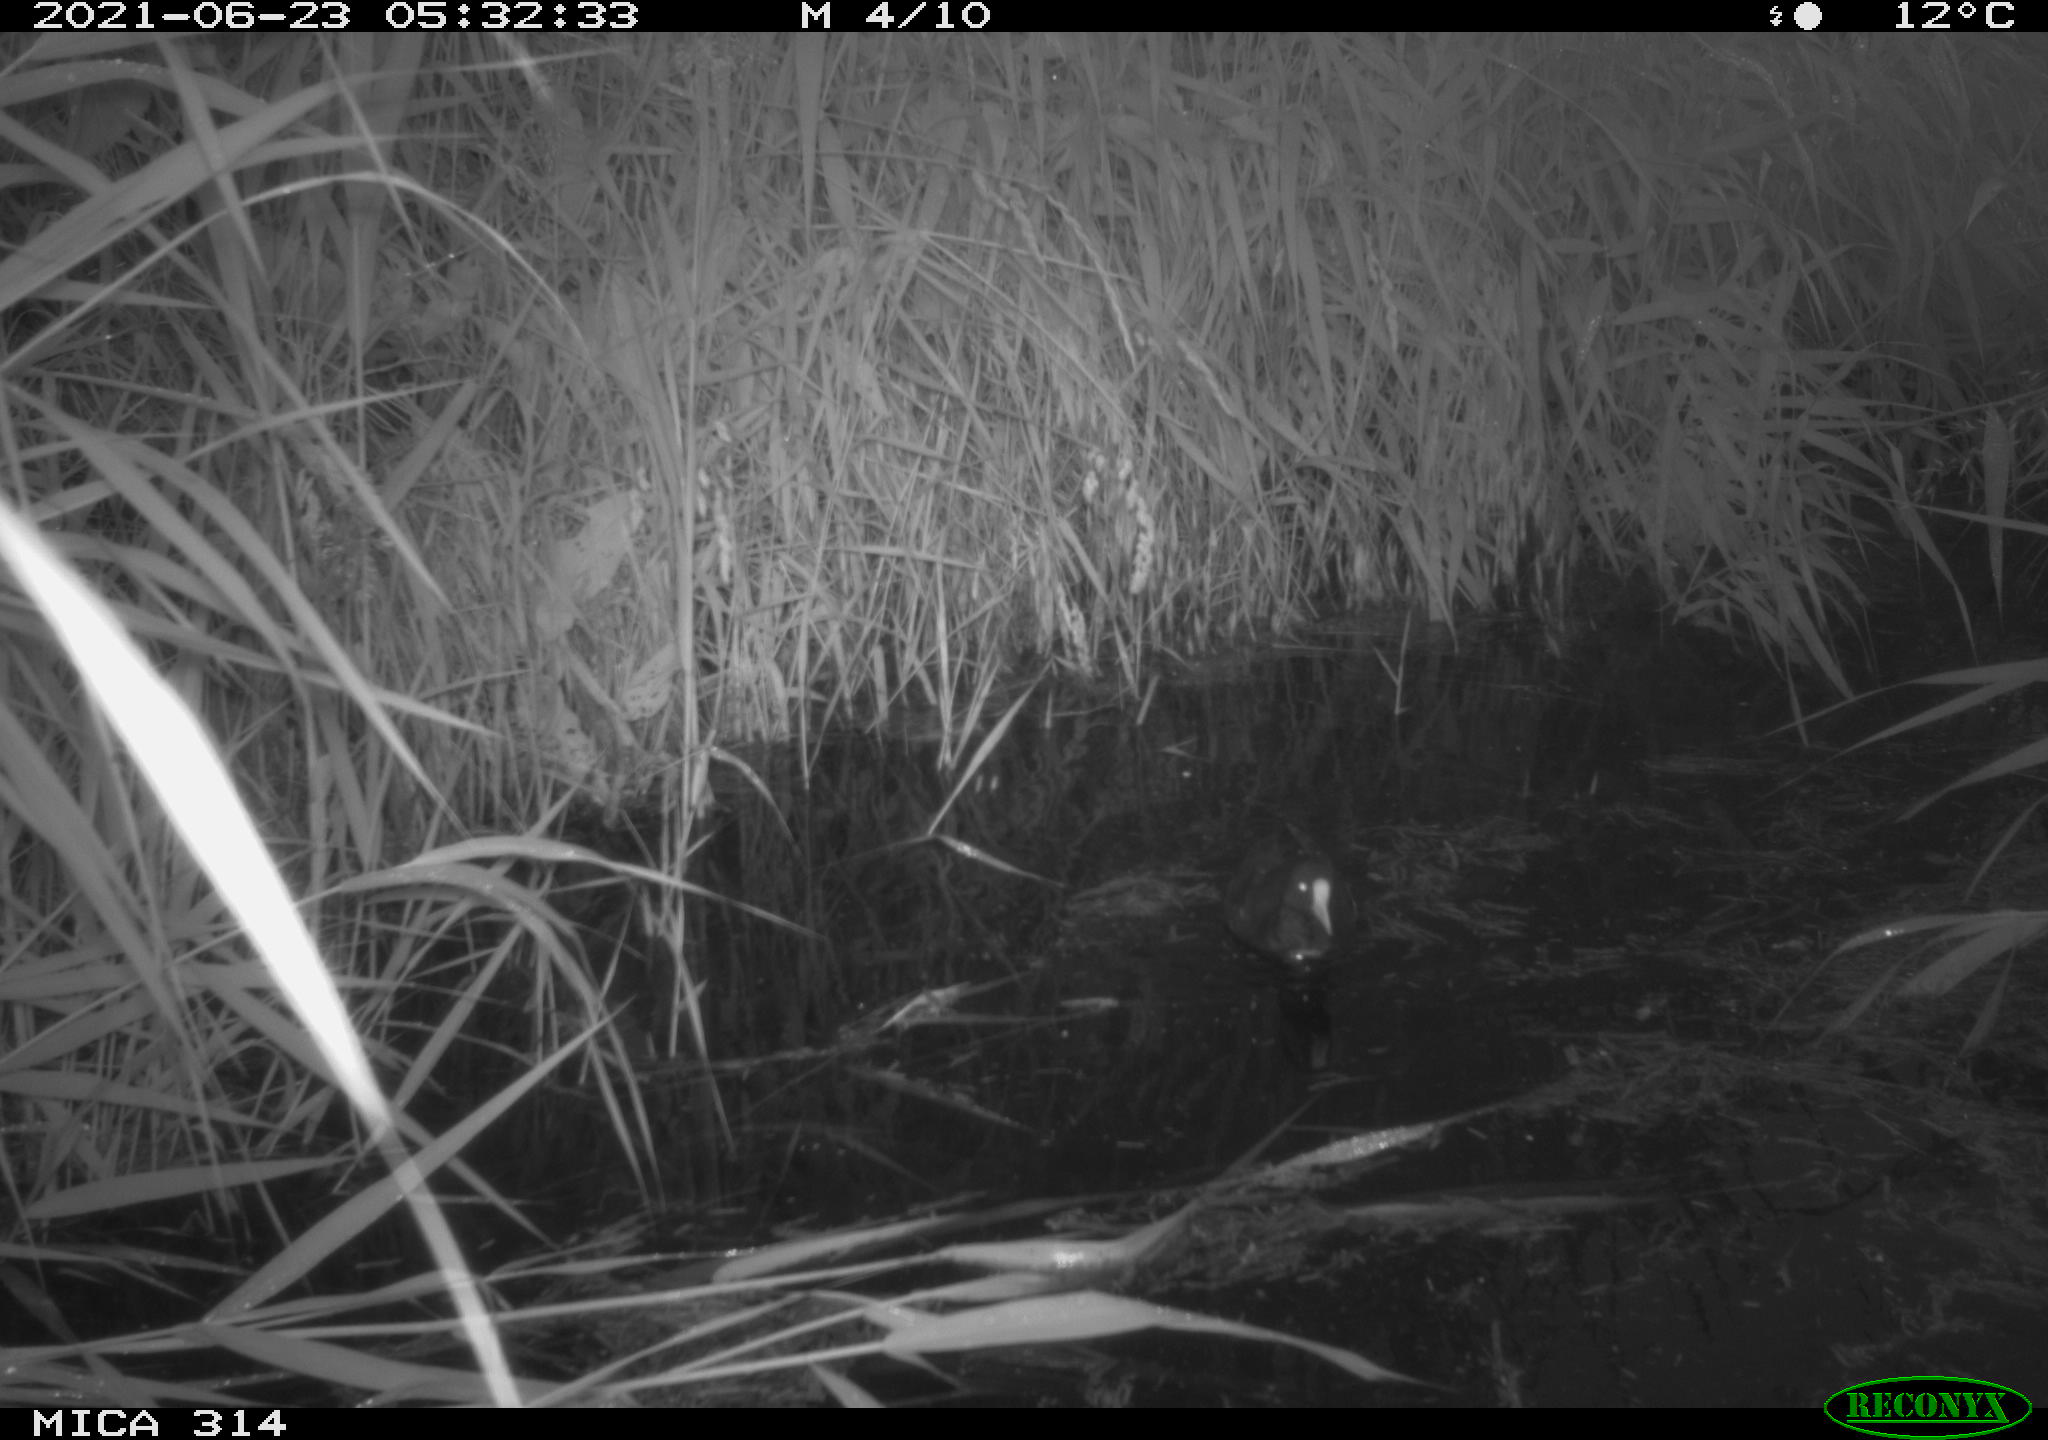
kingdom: Animalia
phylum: Chordata
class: Aves
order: Gruiformes
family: Rallidae
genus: Fulica
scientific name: Fulica atra
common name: Eurasian coot
